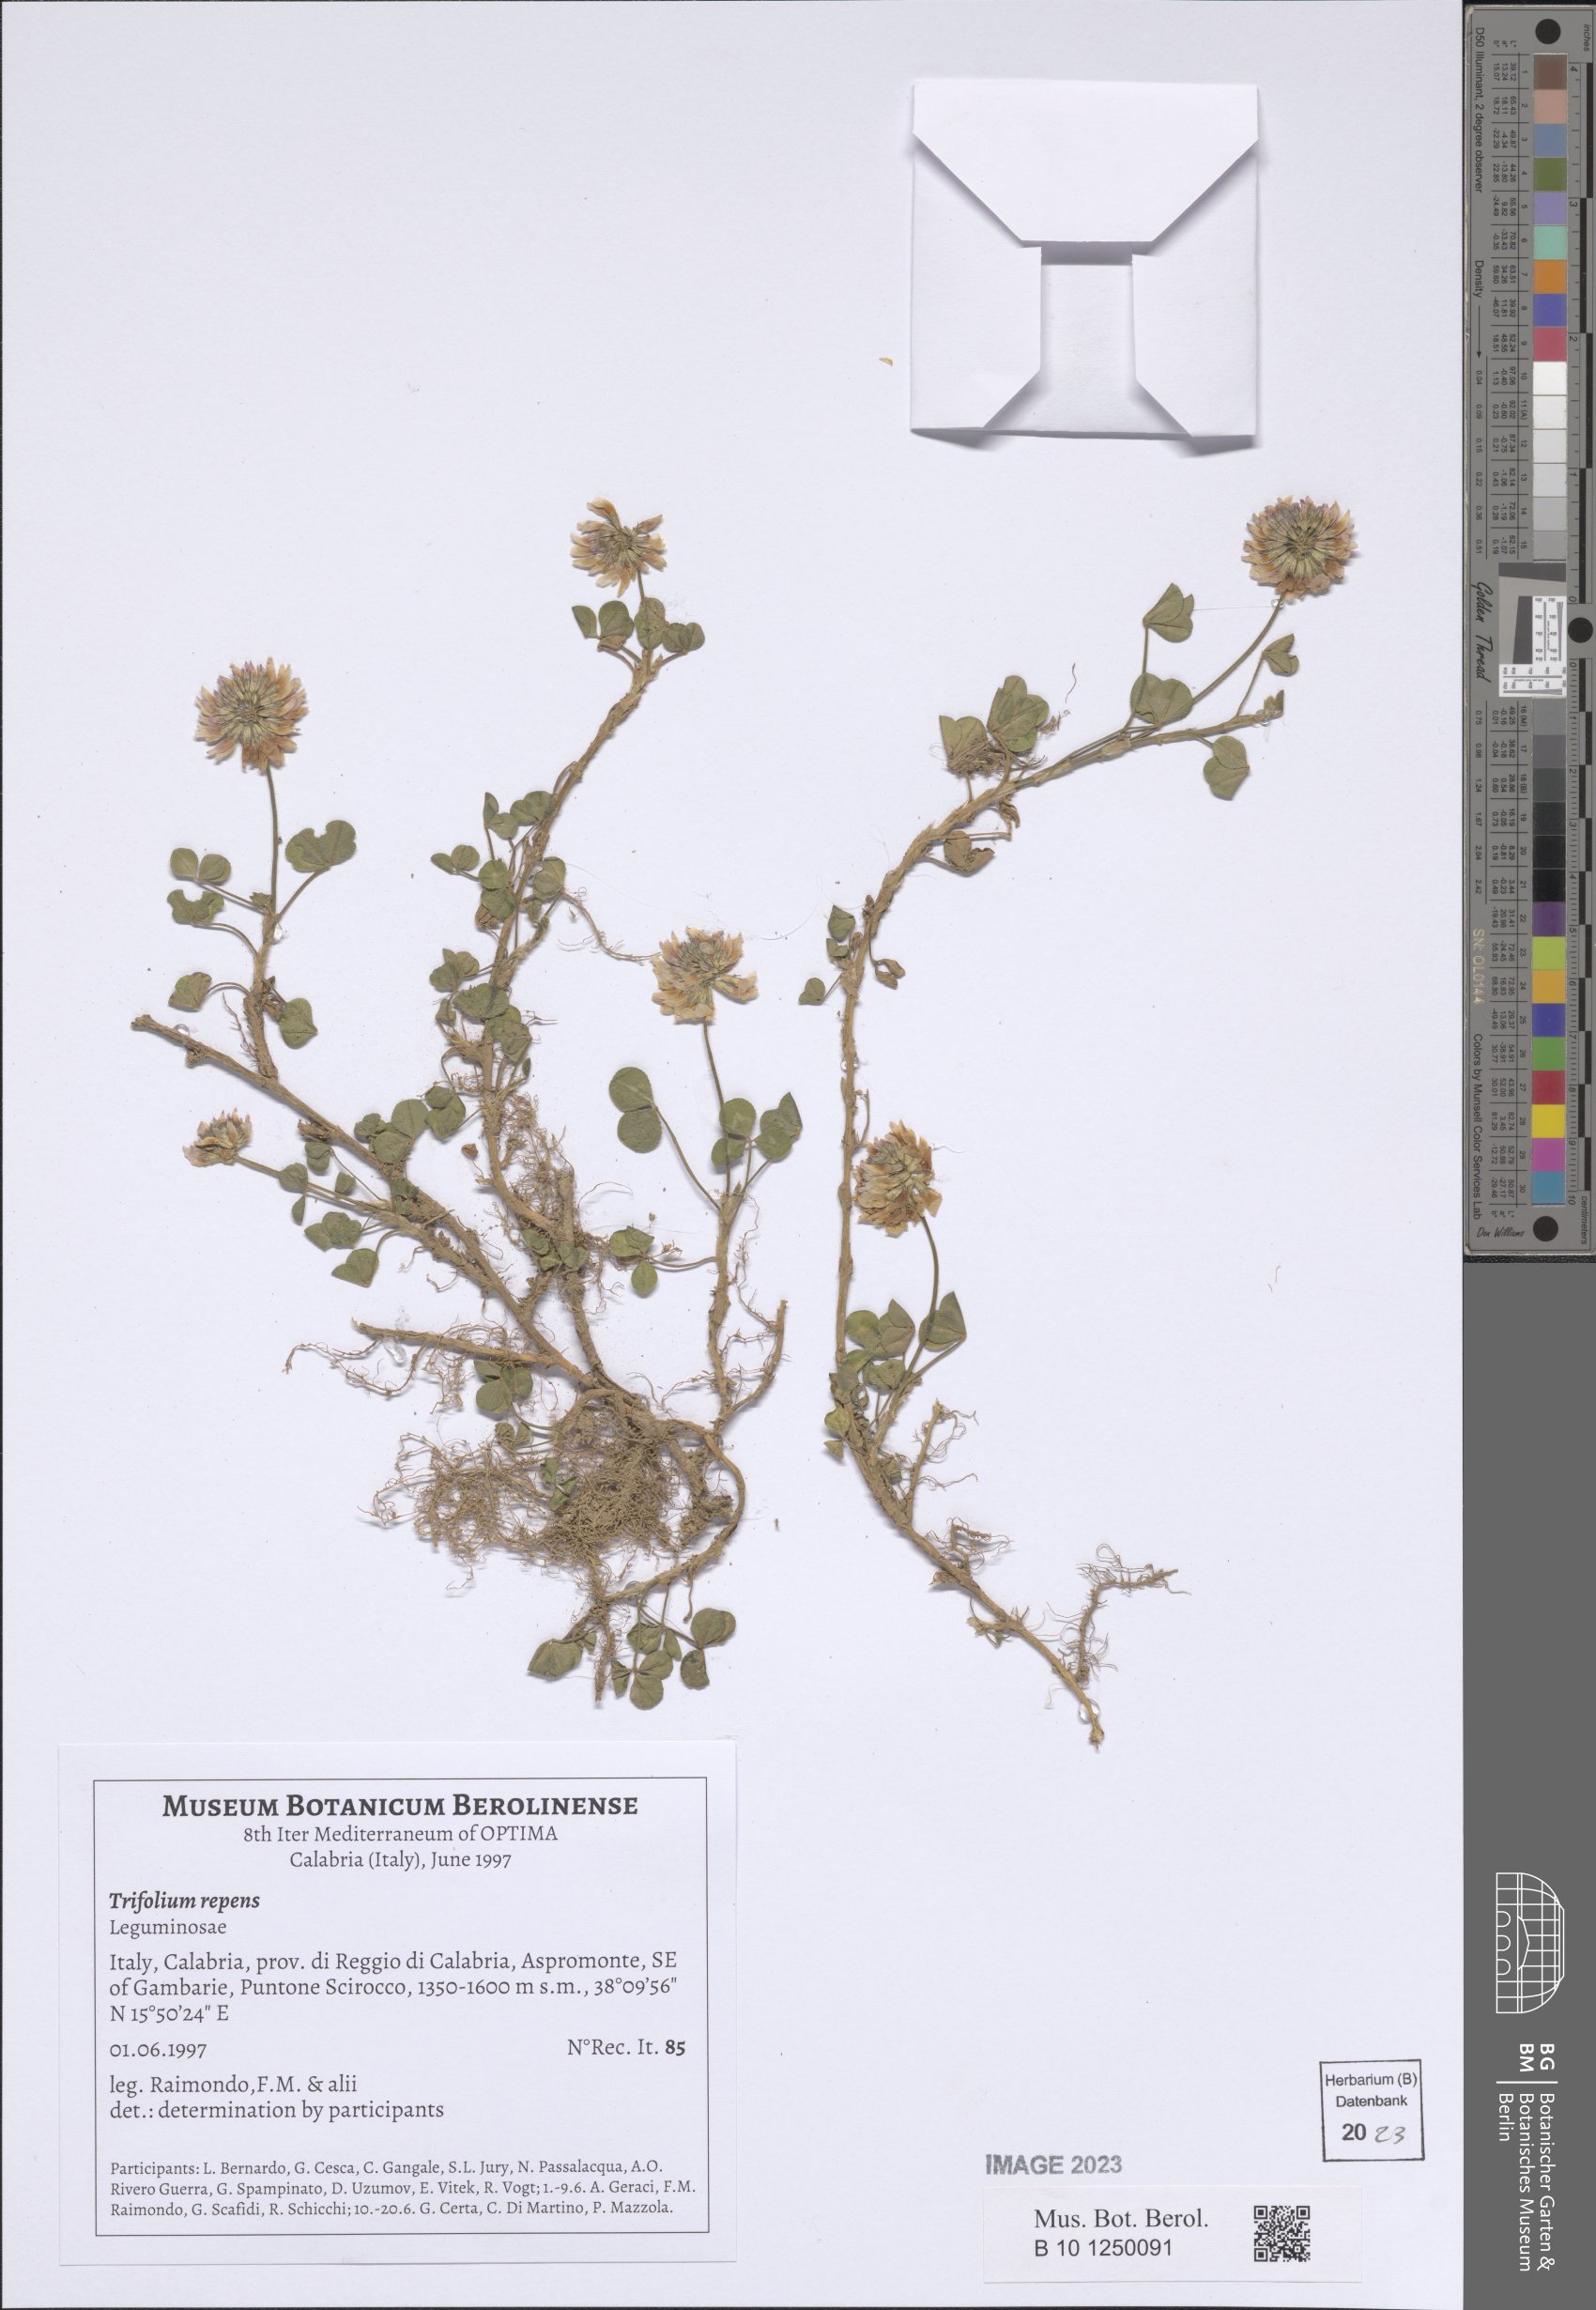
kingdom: Plantae
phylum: Tracheophyta
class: Magnoliopsida
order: Fabales
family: Fabaceae
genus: Trifolium
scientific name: Trifolium repens
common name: White clover
